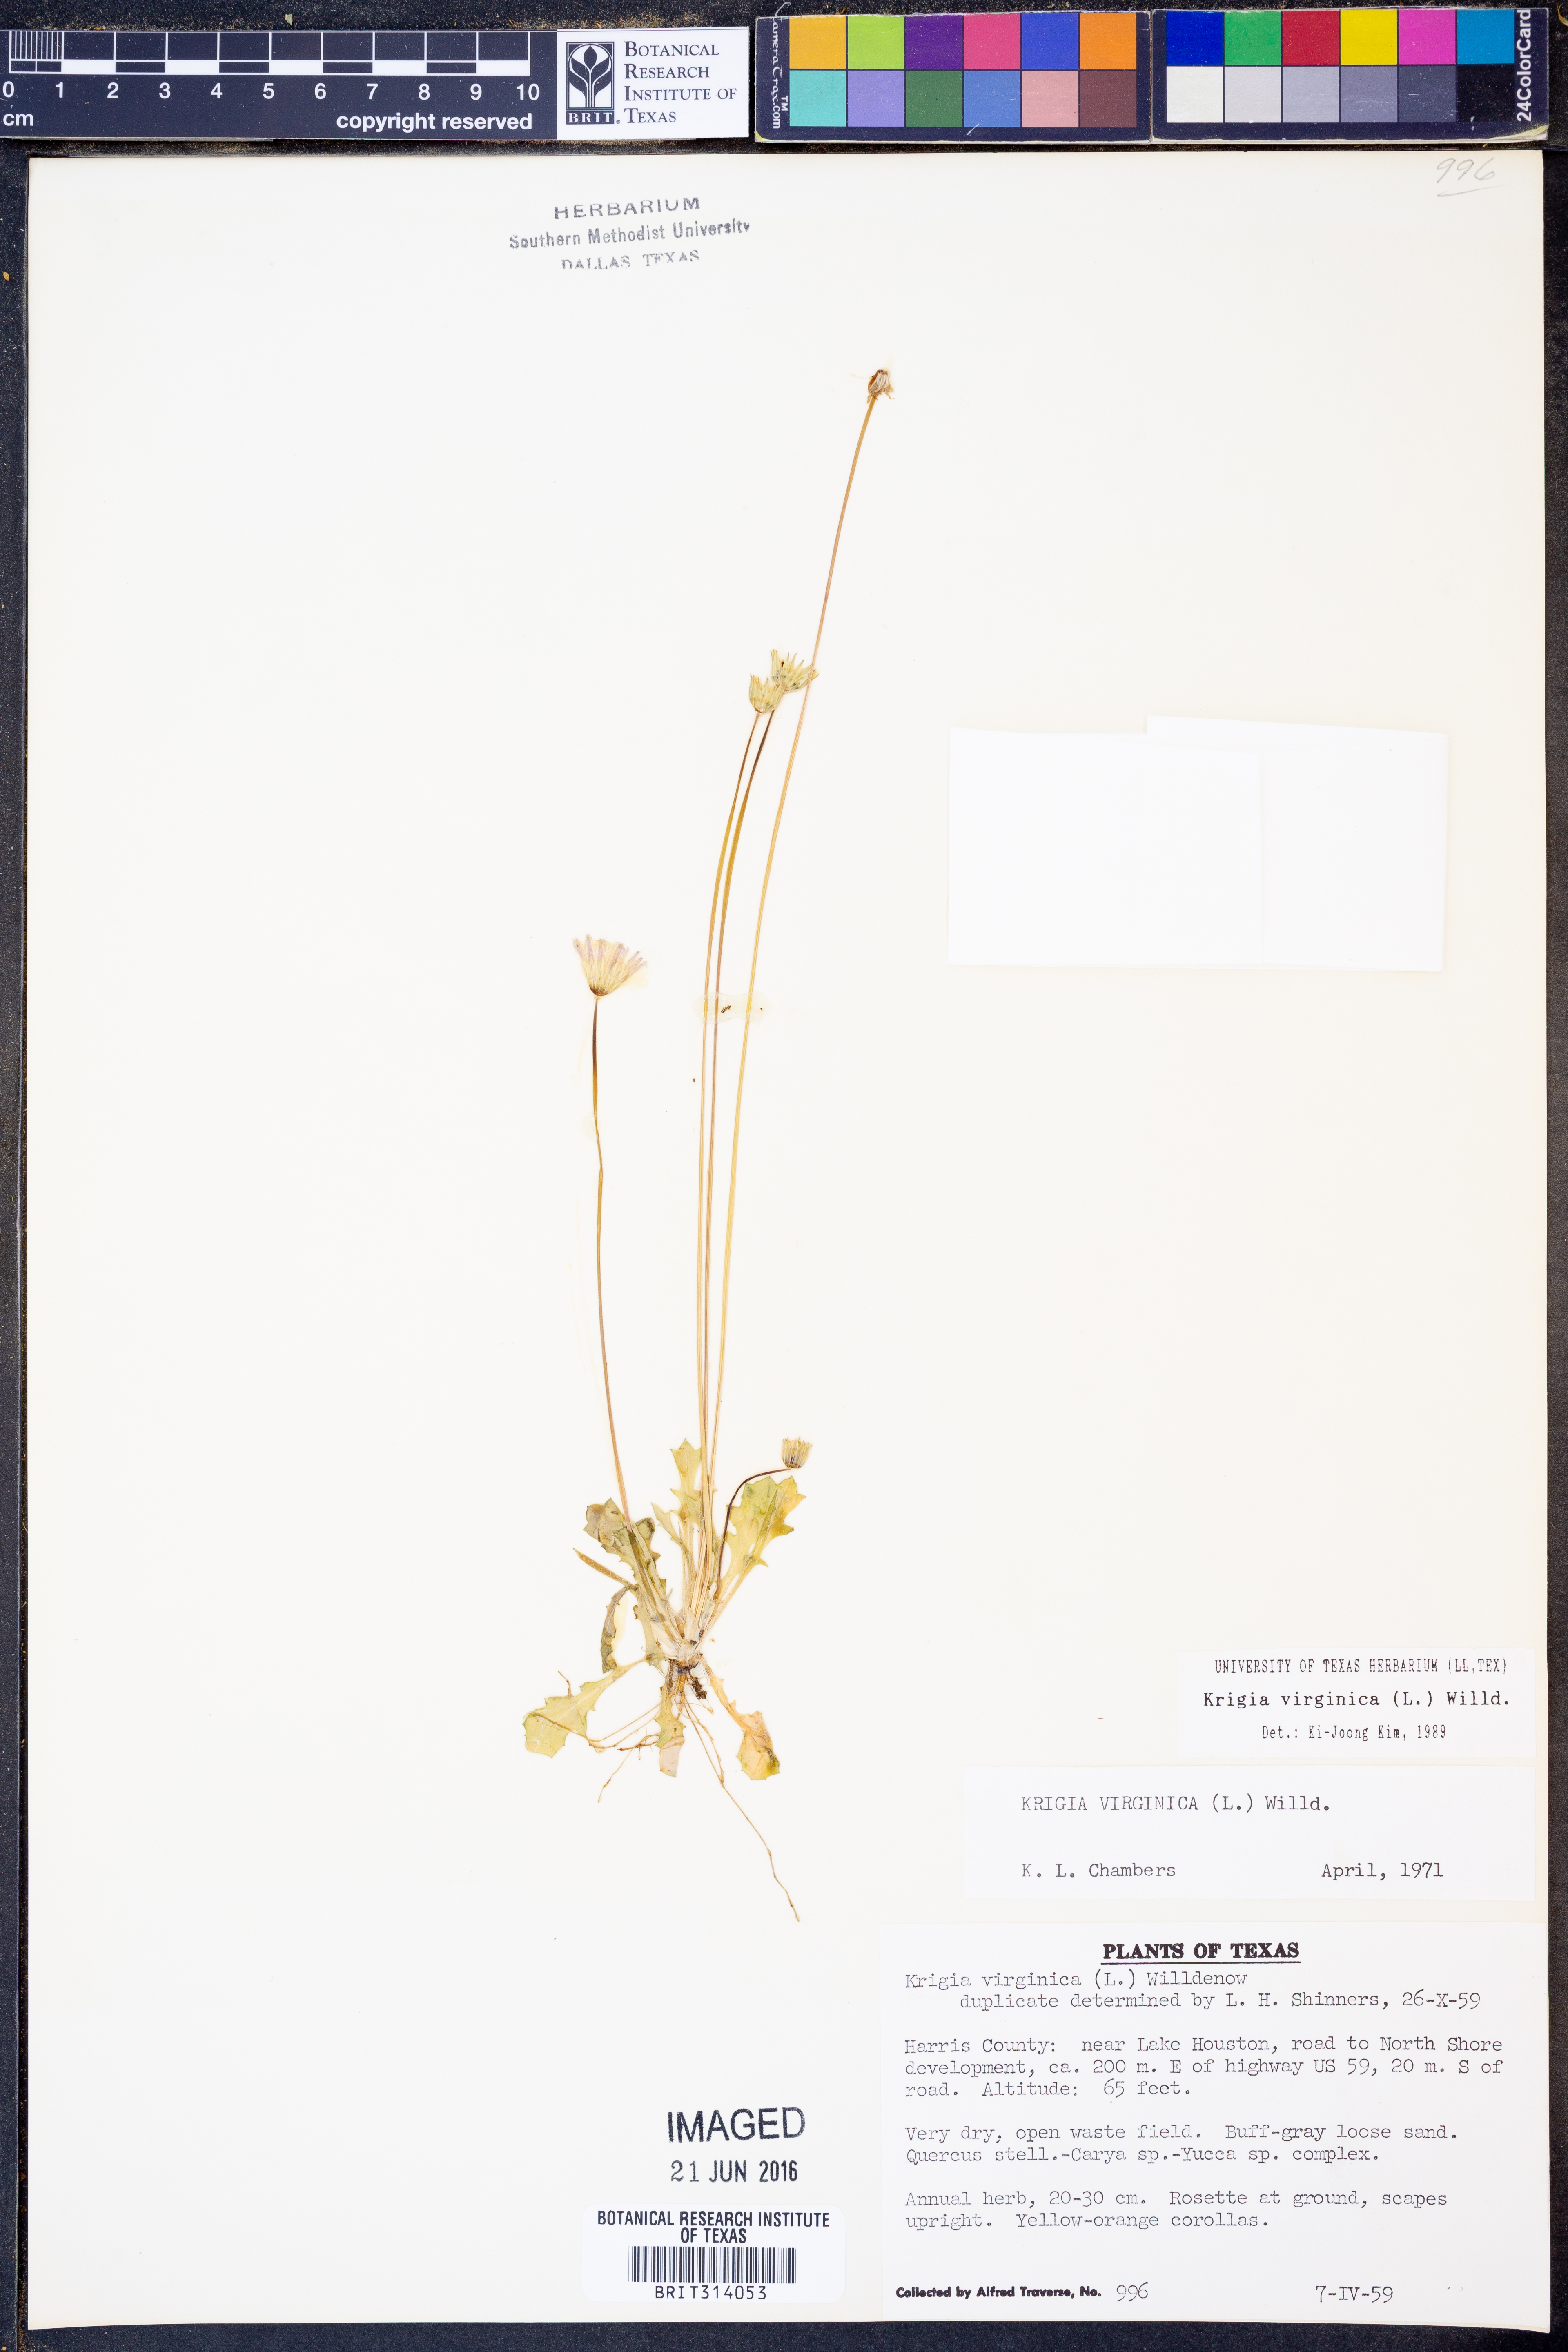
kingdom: Plantae
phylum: Tracheophyta
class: Magnoliopsida
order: Asterales
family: Asteraceae
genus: Krigia
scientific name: Krigia virginica
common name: Virginia dwarf-dandelion
